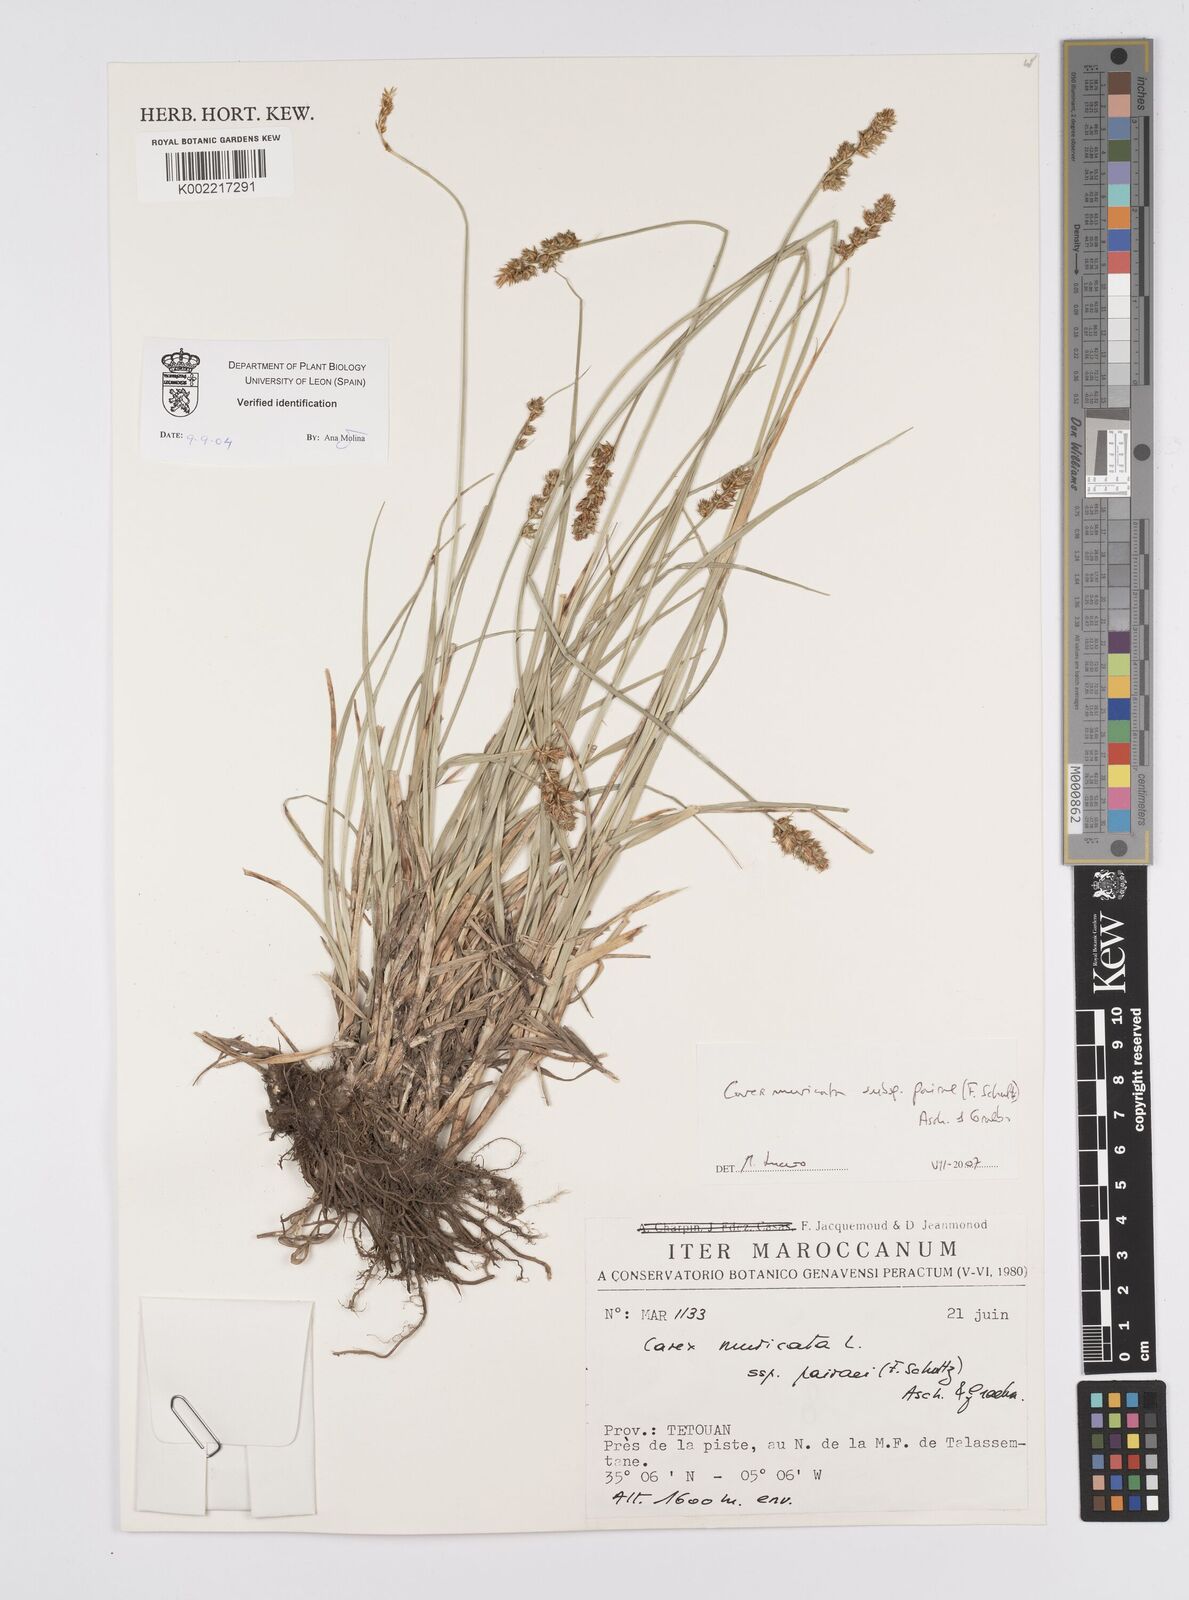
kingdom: Plantae
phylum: Tracheophyta
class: Liliopsida
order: Poales
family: Cyperaceae
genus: Carex
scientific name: Carex muricata
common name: Rough sedge
